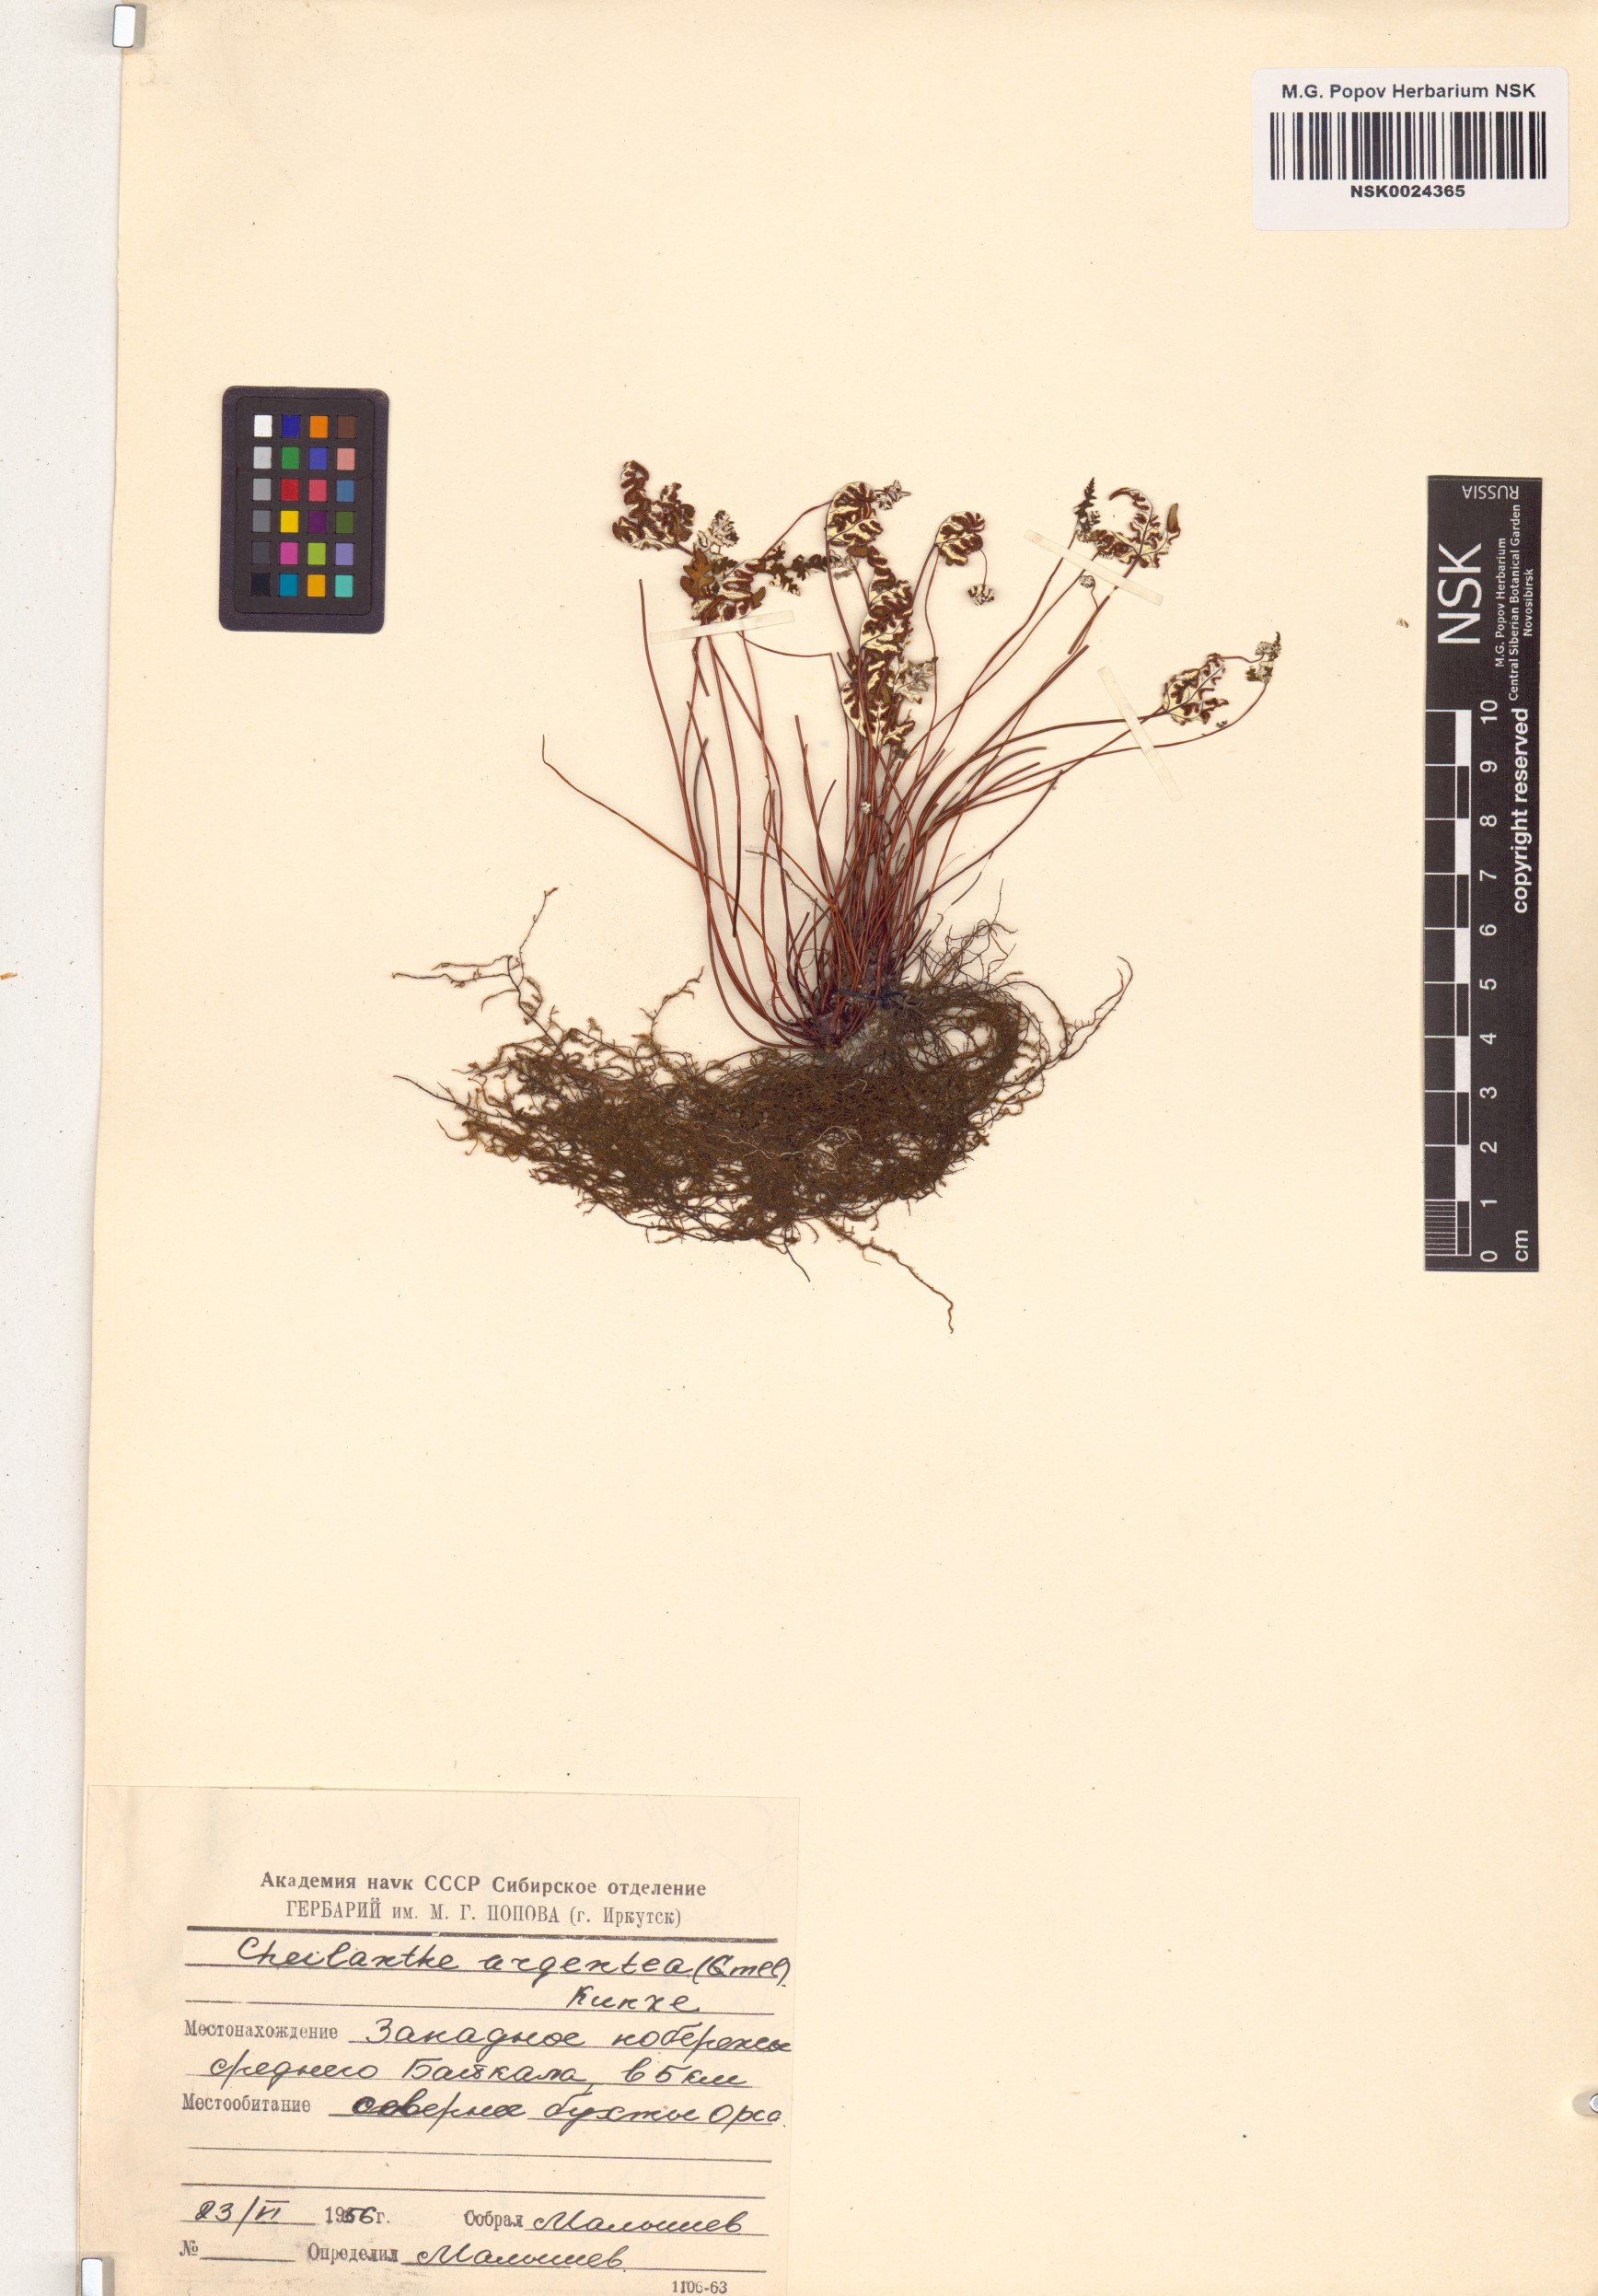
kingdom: Plantae
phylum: Tracheophyta
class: Polypodiopsida
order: Polypodiales
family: Pteridaceae
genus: Aleuritopteris
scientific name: Aleuritopteris argentea
